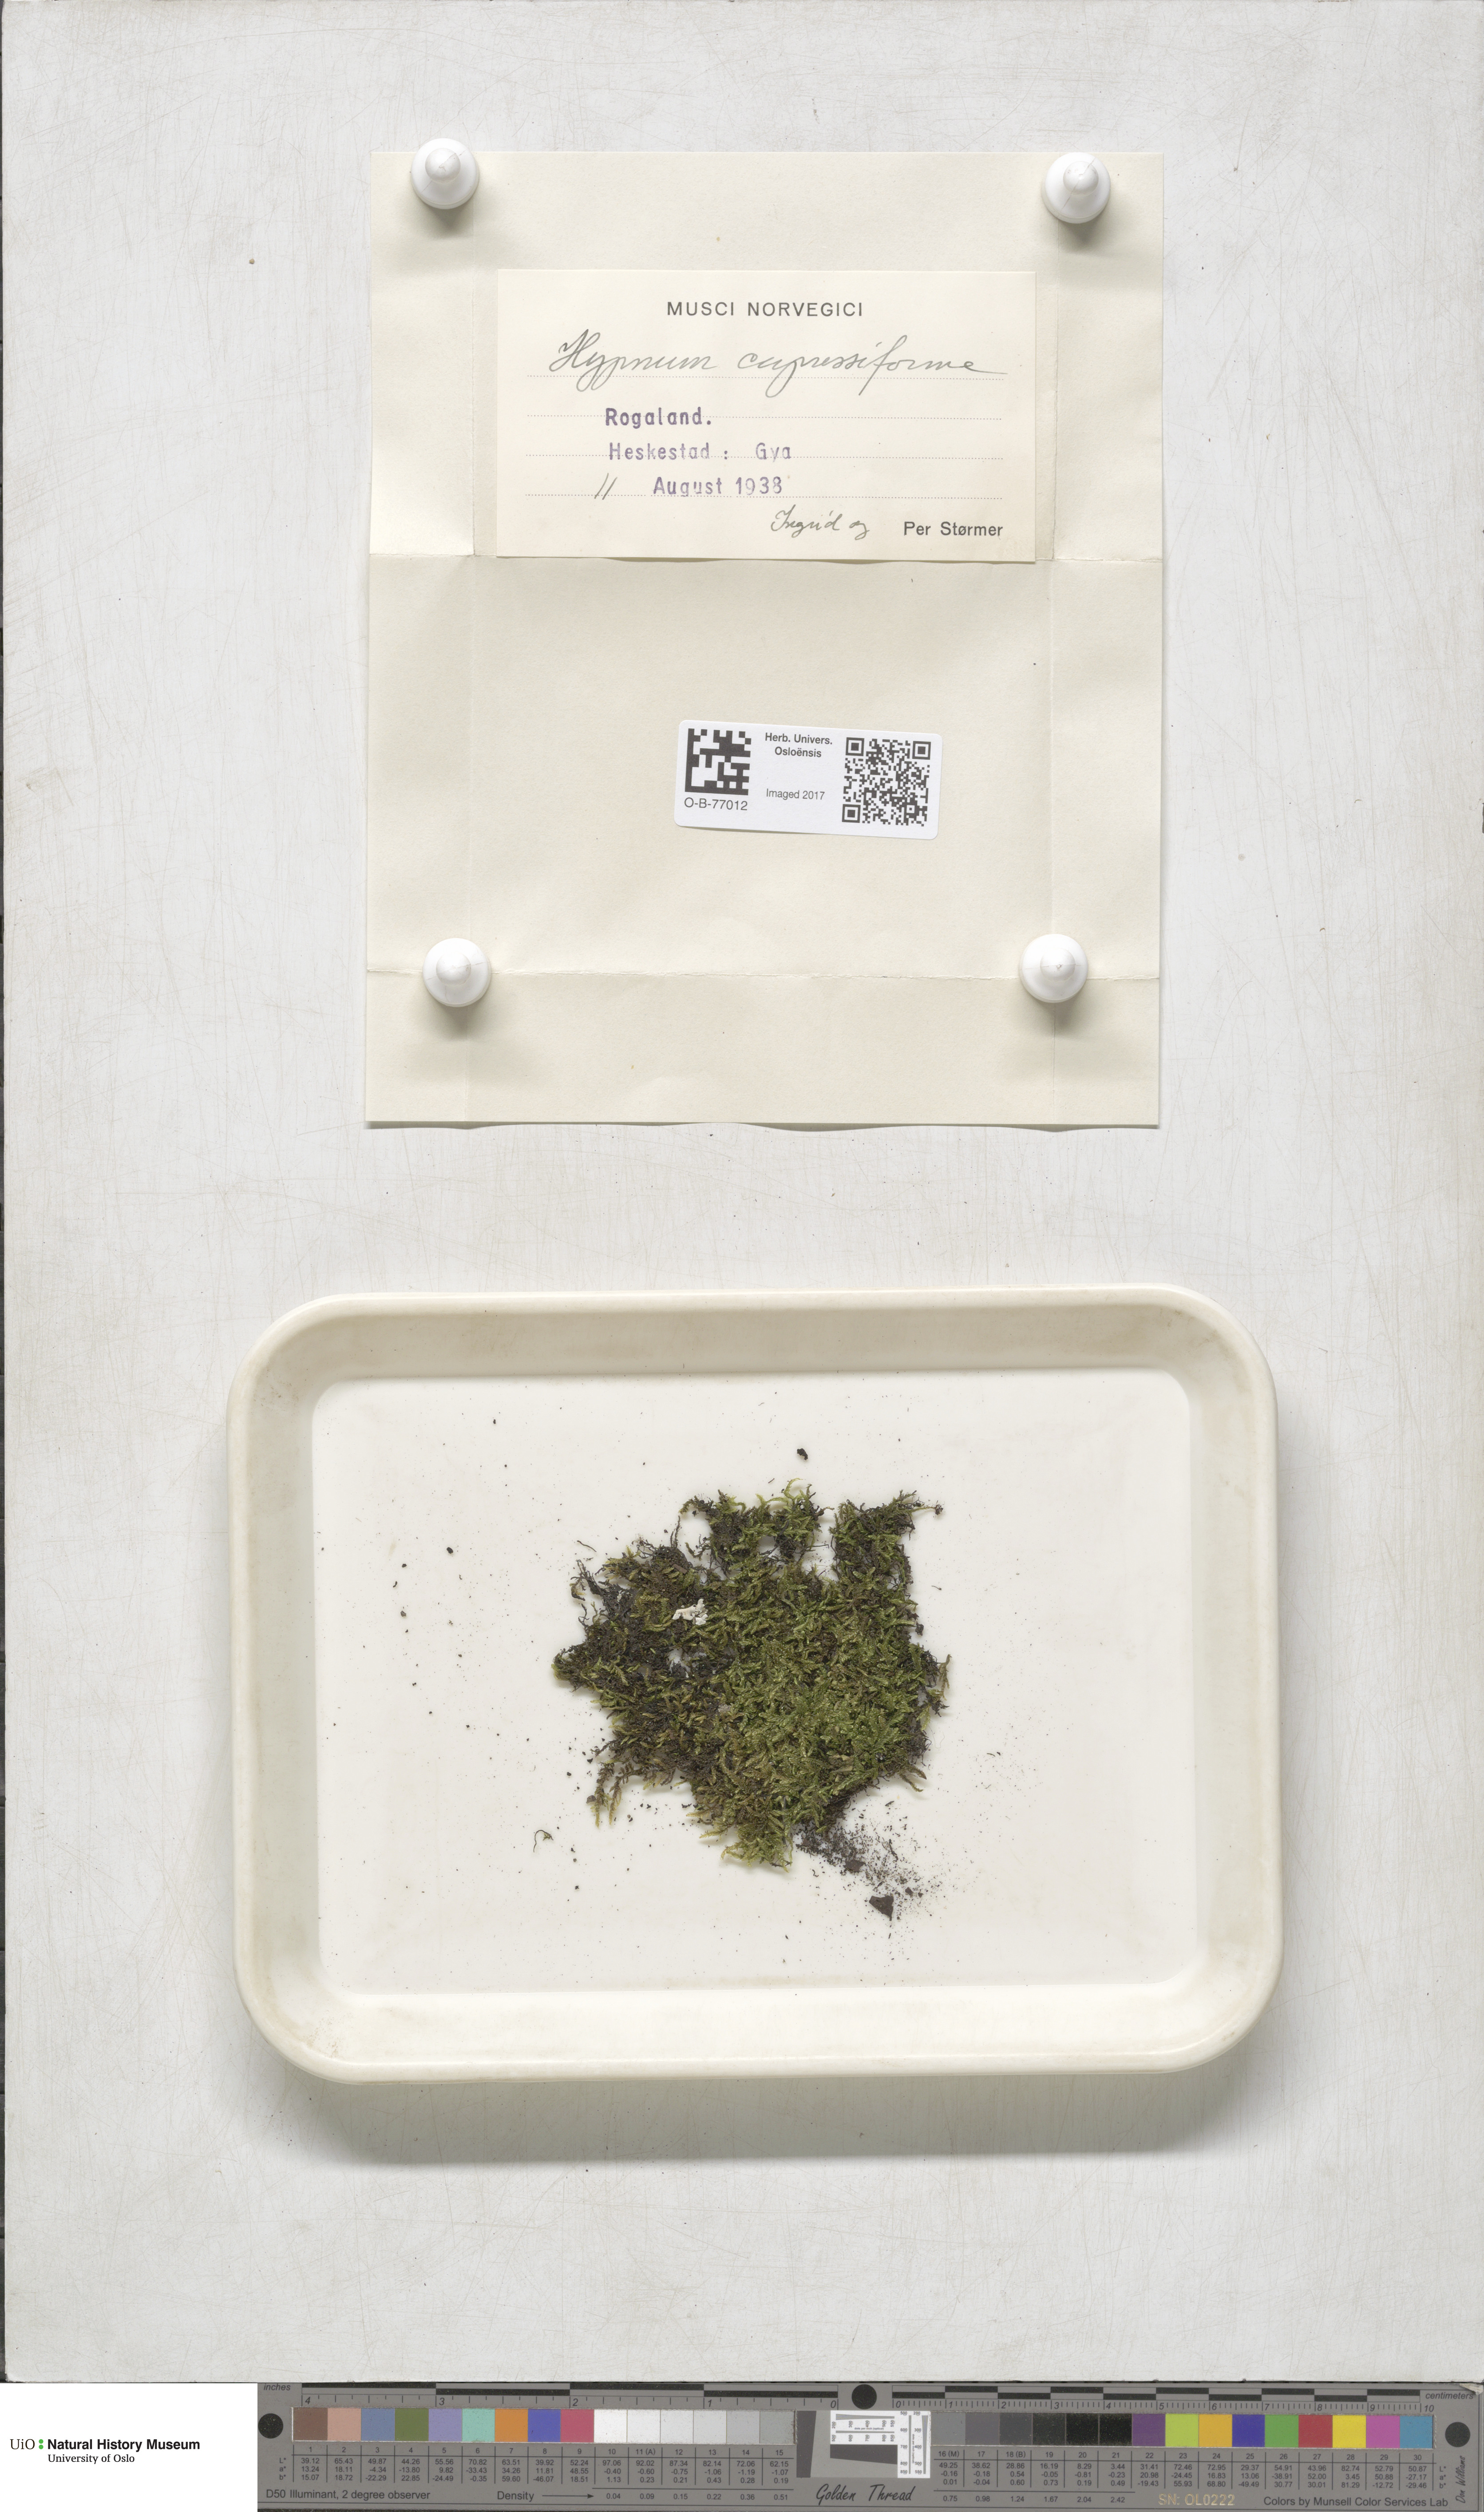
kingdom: Plantae
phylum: Bryophyta
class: Bryopsida
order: Hypnales
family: Hypnaceae
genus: Hypnum
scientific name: Hypnum cupressiforme
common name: Cypress-leaved plait-moss
